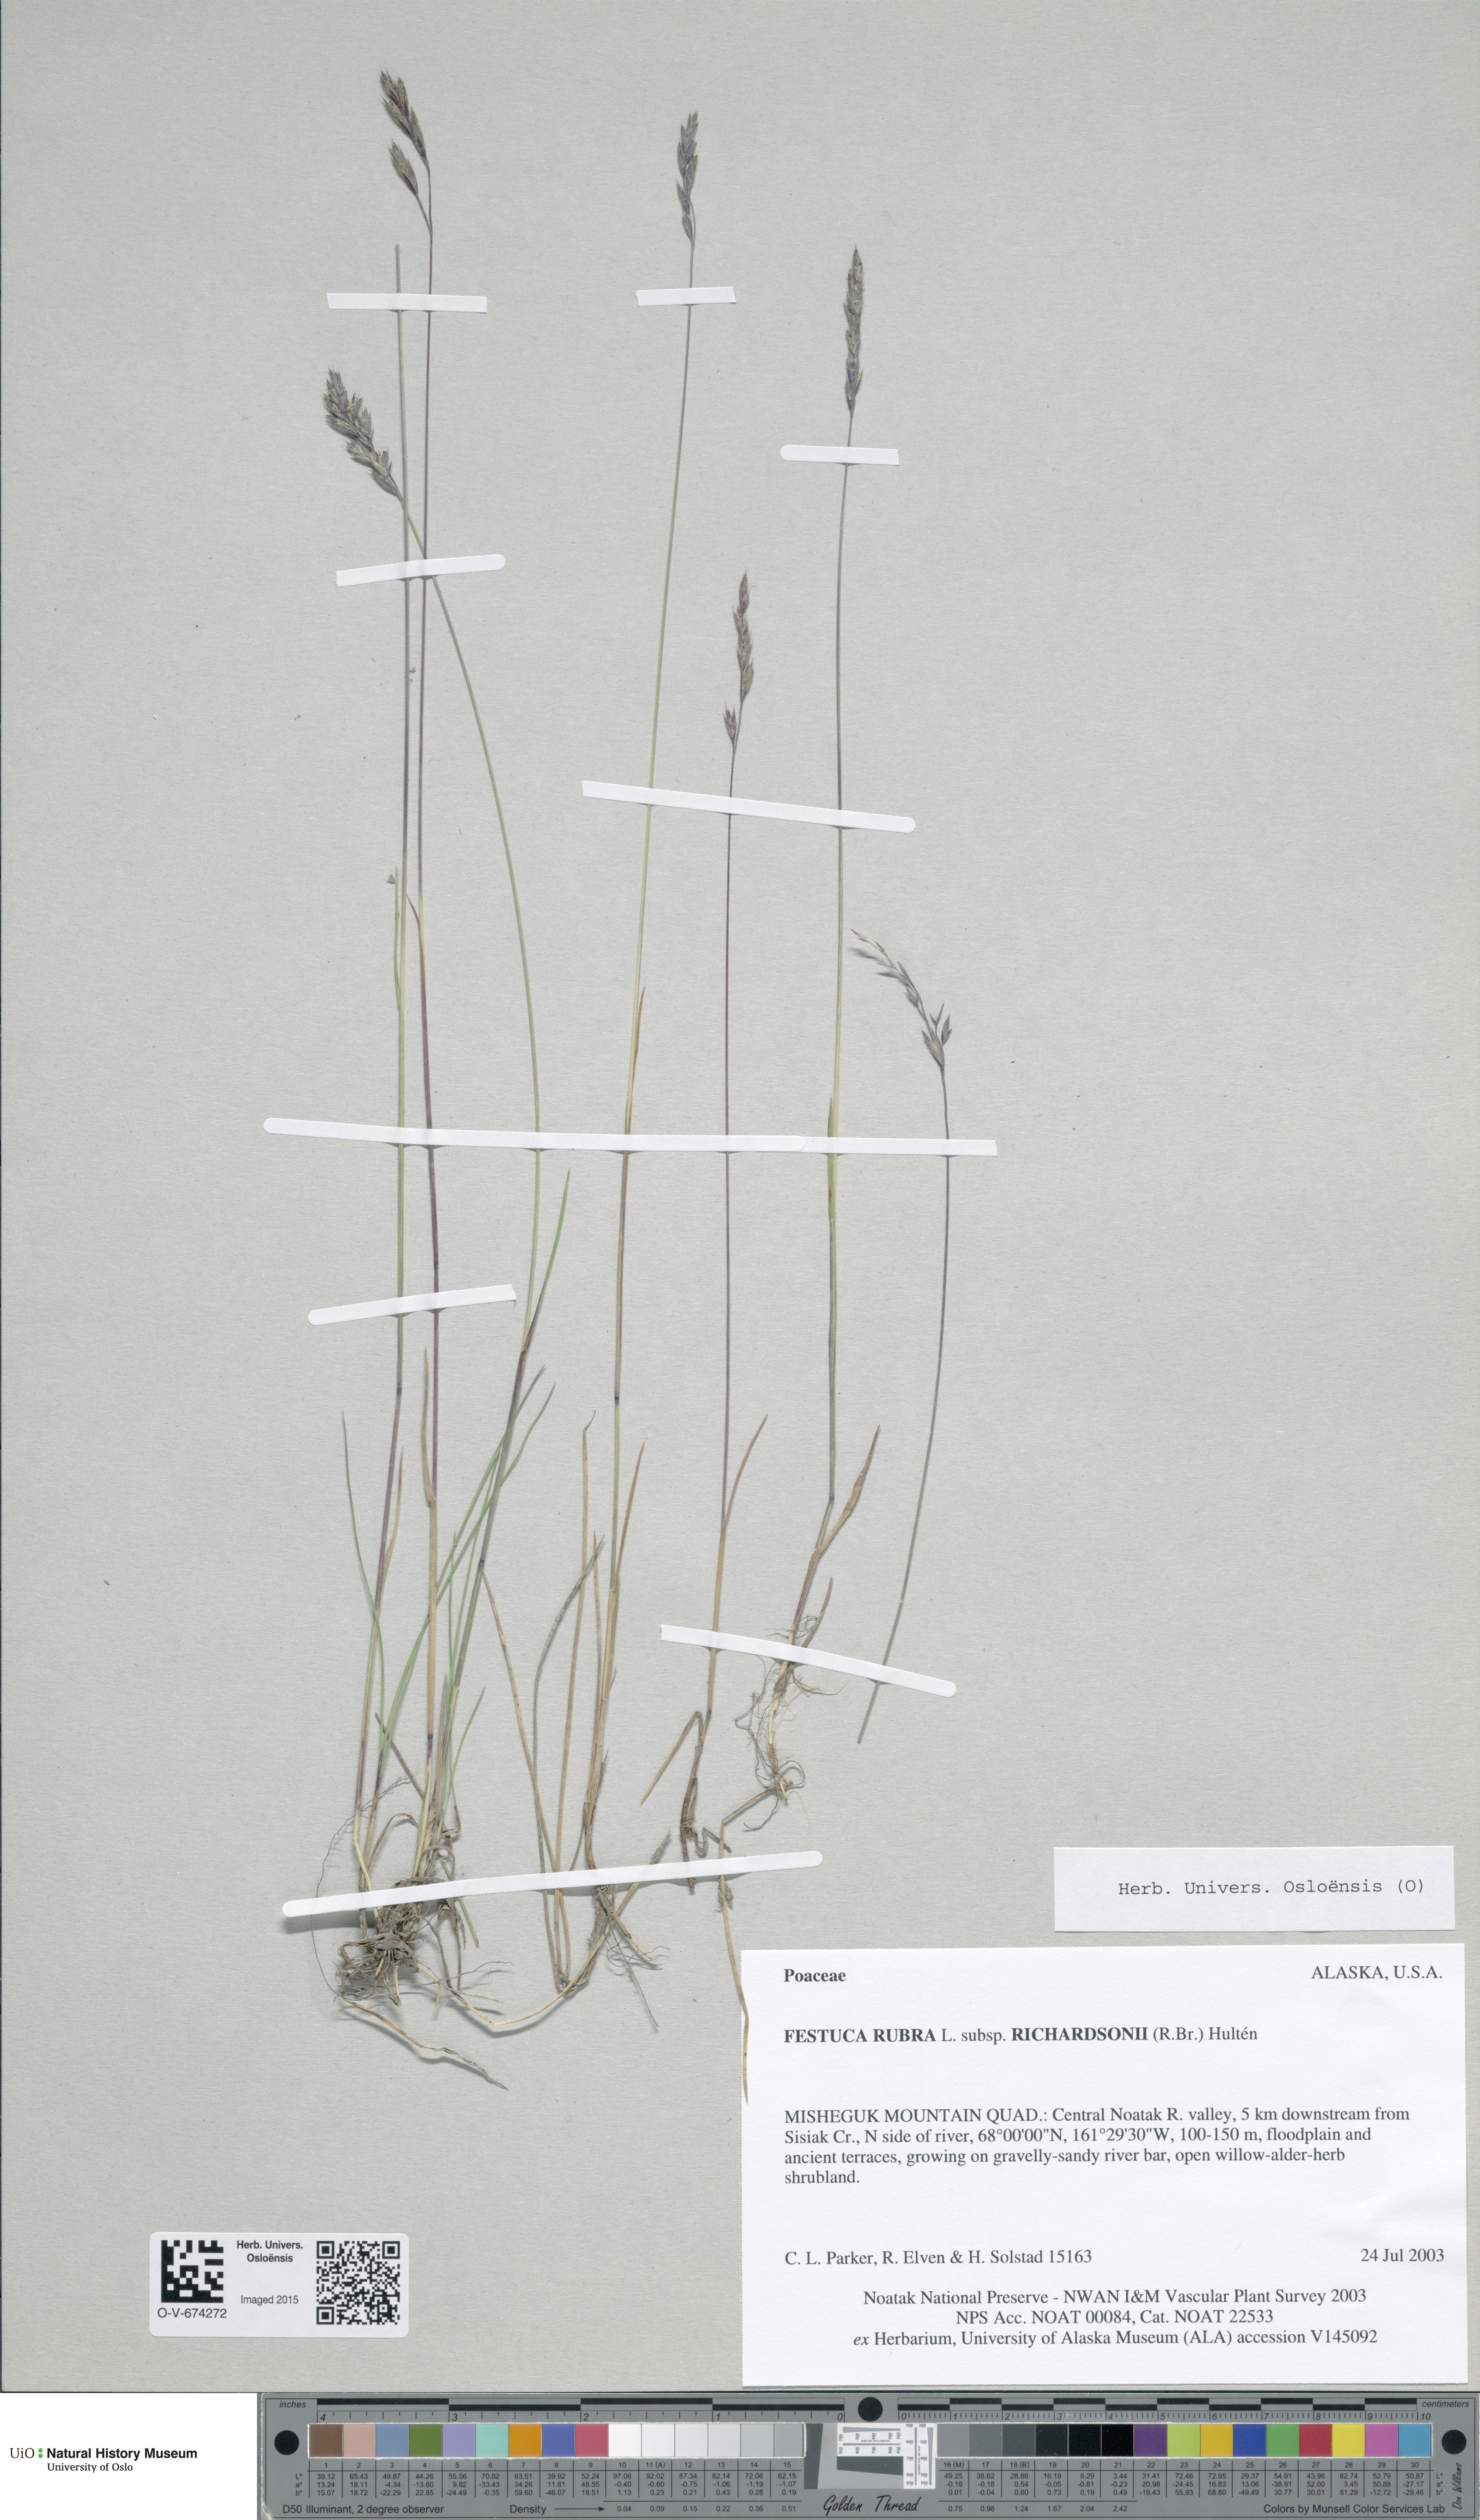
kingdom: Plantae
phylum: Tracheophyta
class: Liliopsida
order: Poales
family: Poaceae
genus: Festuca
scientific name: Festuca richardsonii
